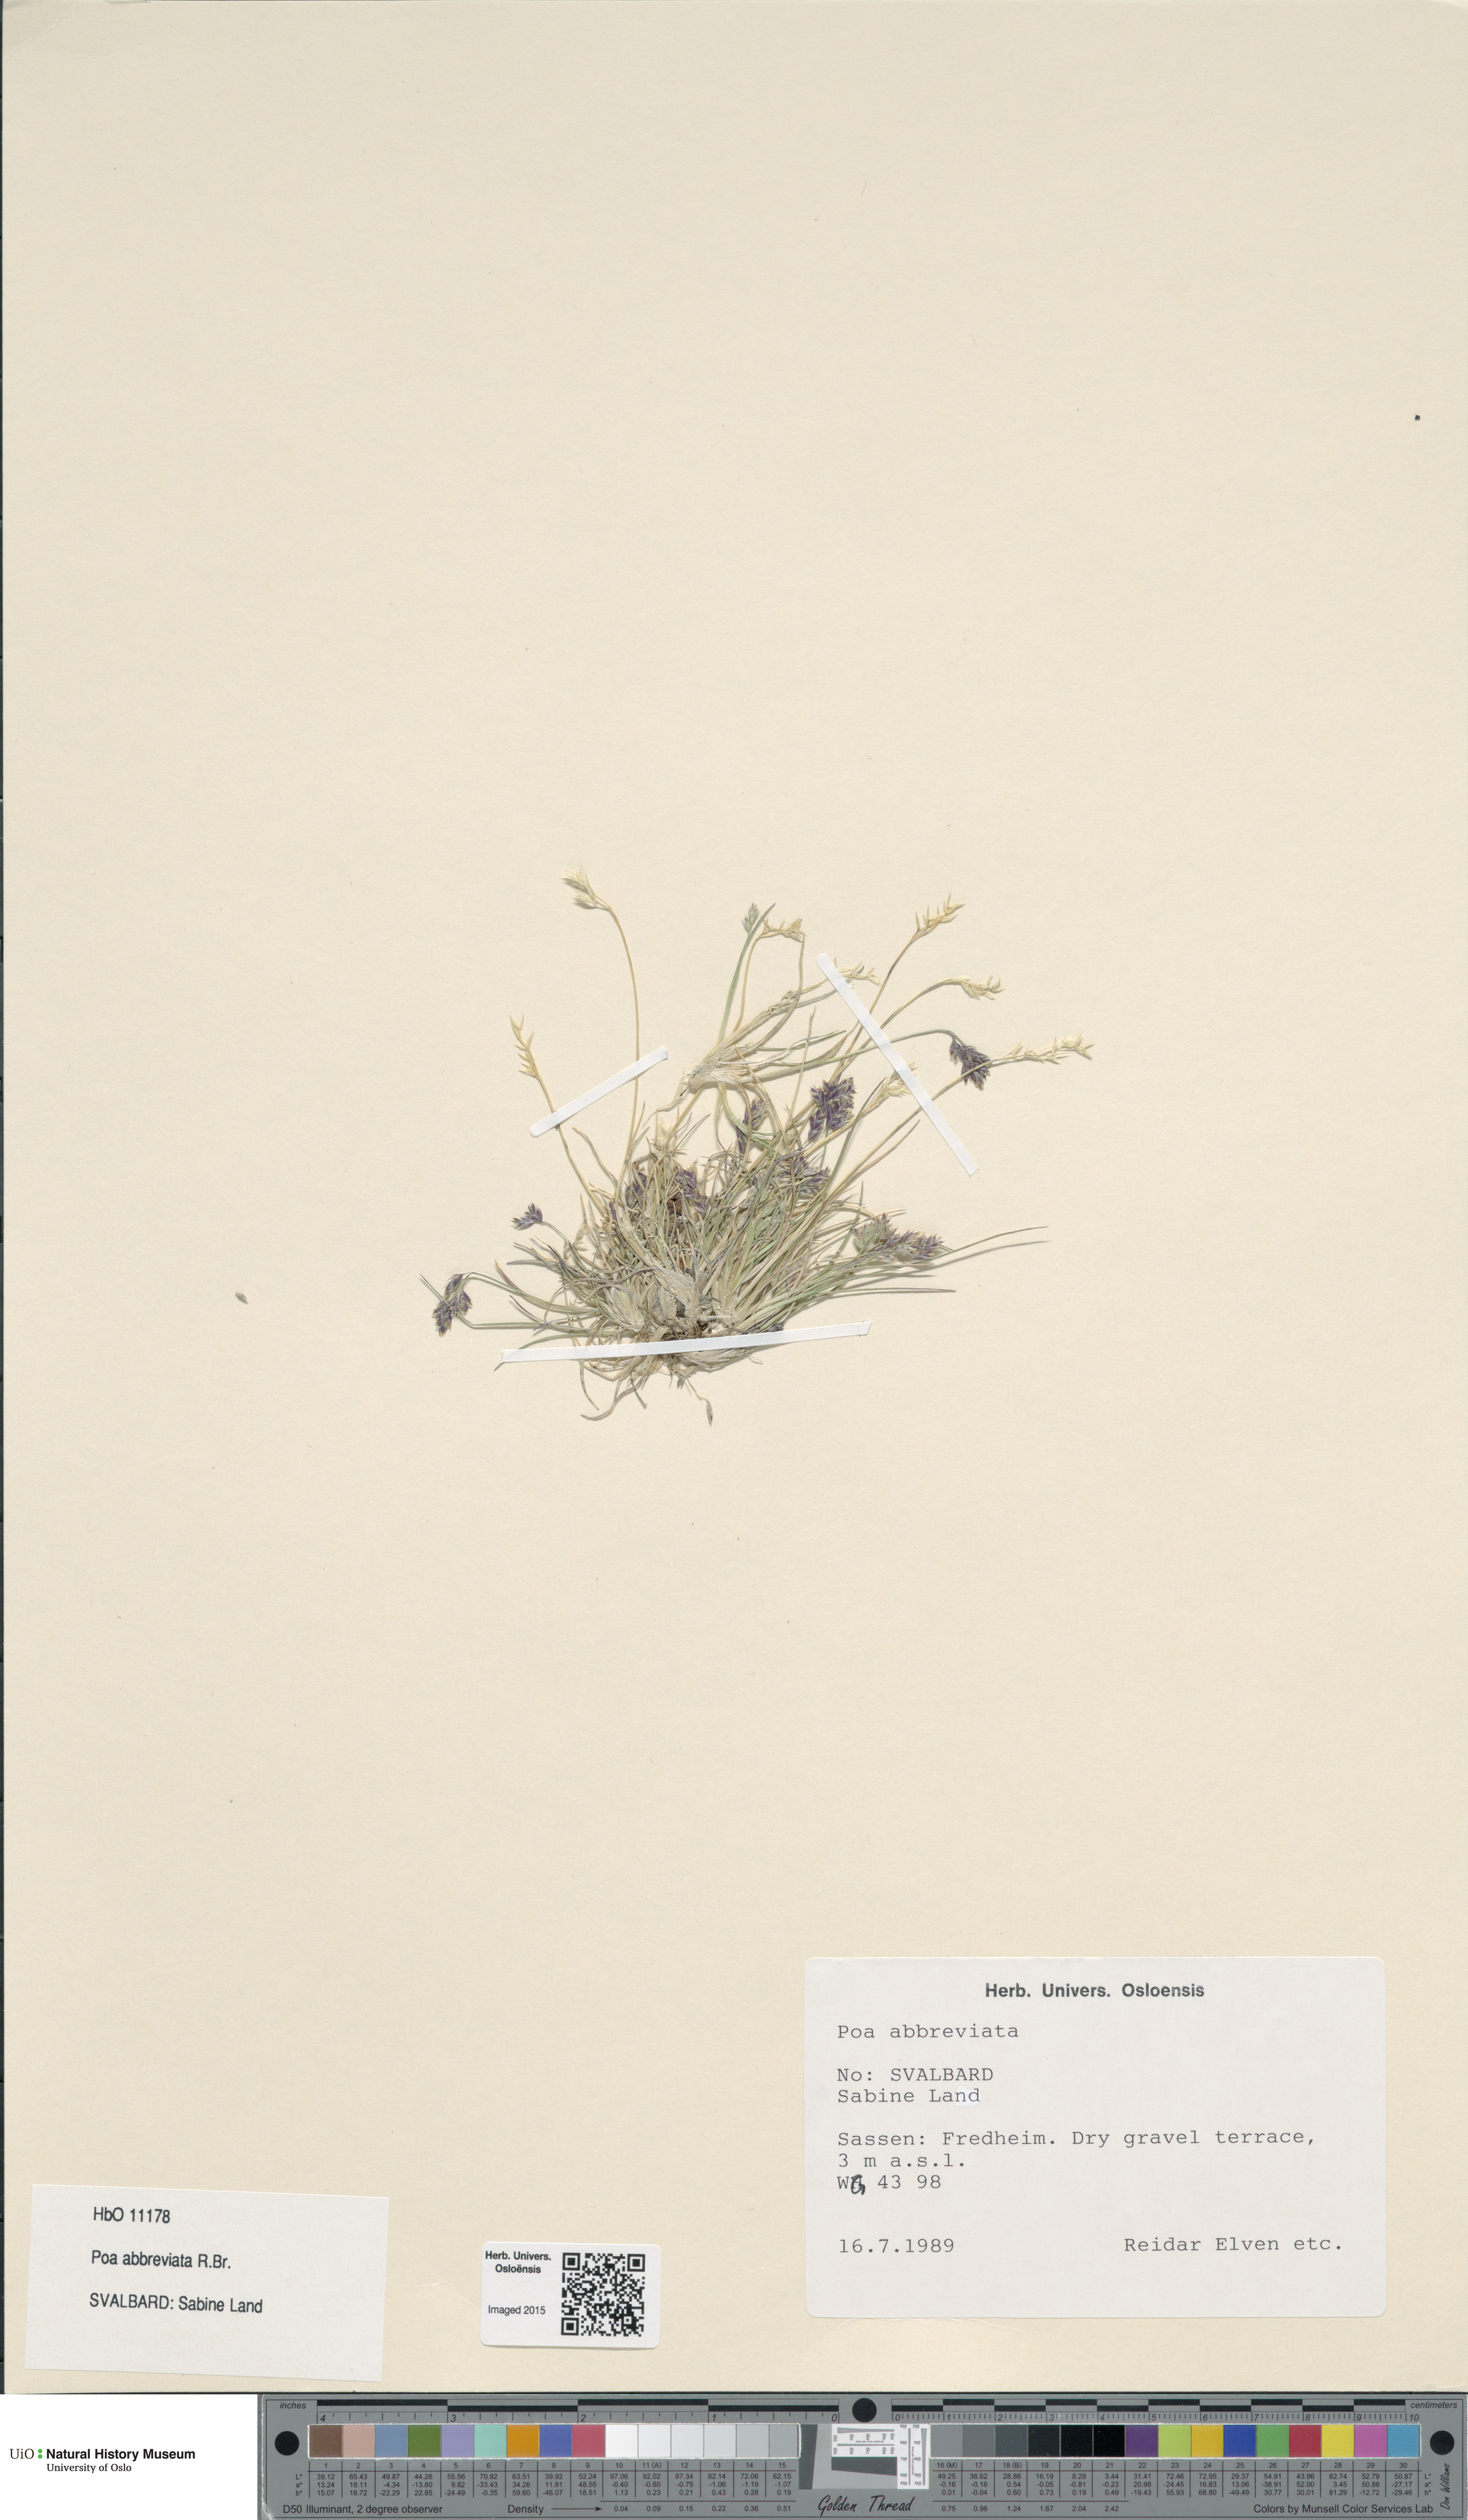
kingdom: Plantae
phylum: Tracheophyta
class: Liliopsida
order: Poales
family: Poaceae
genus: Poa
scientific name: Poa abbreviata
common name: Abbreviated bluegrass
